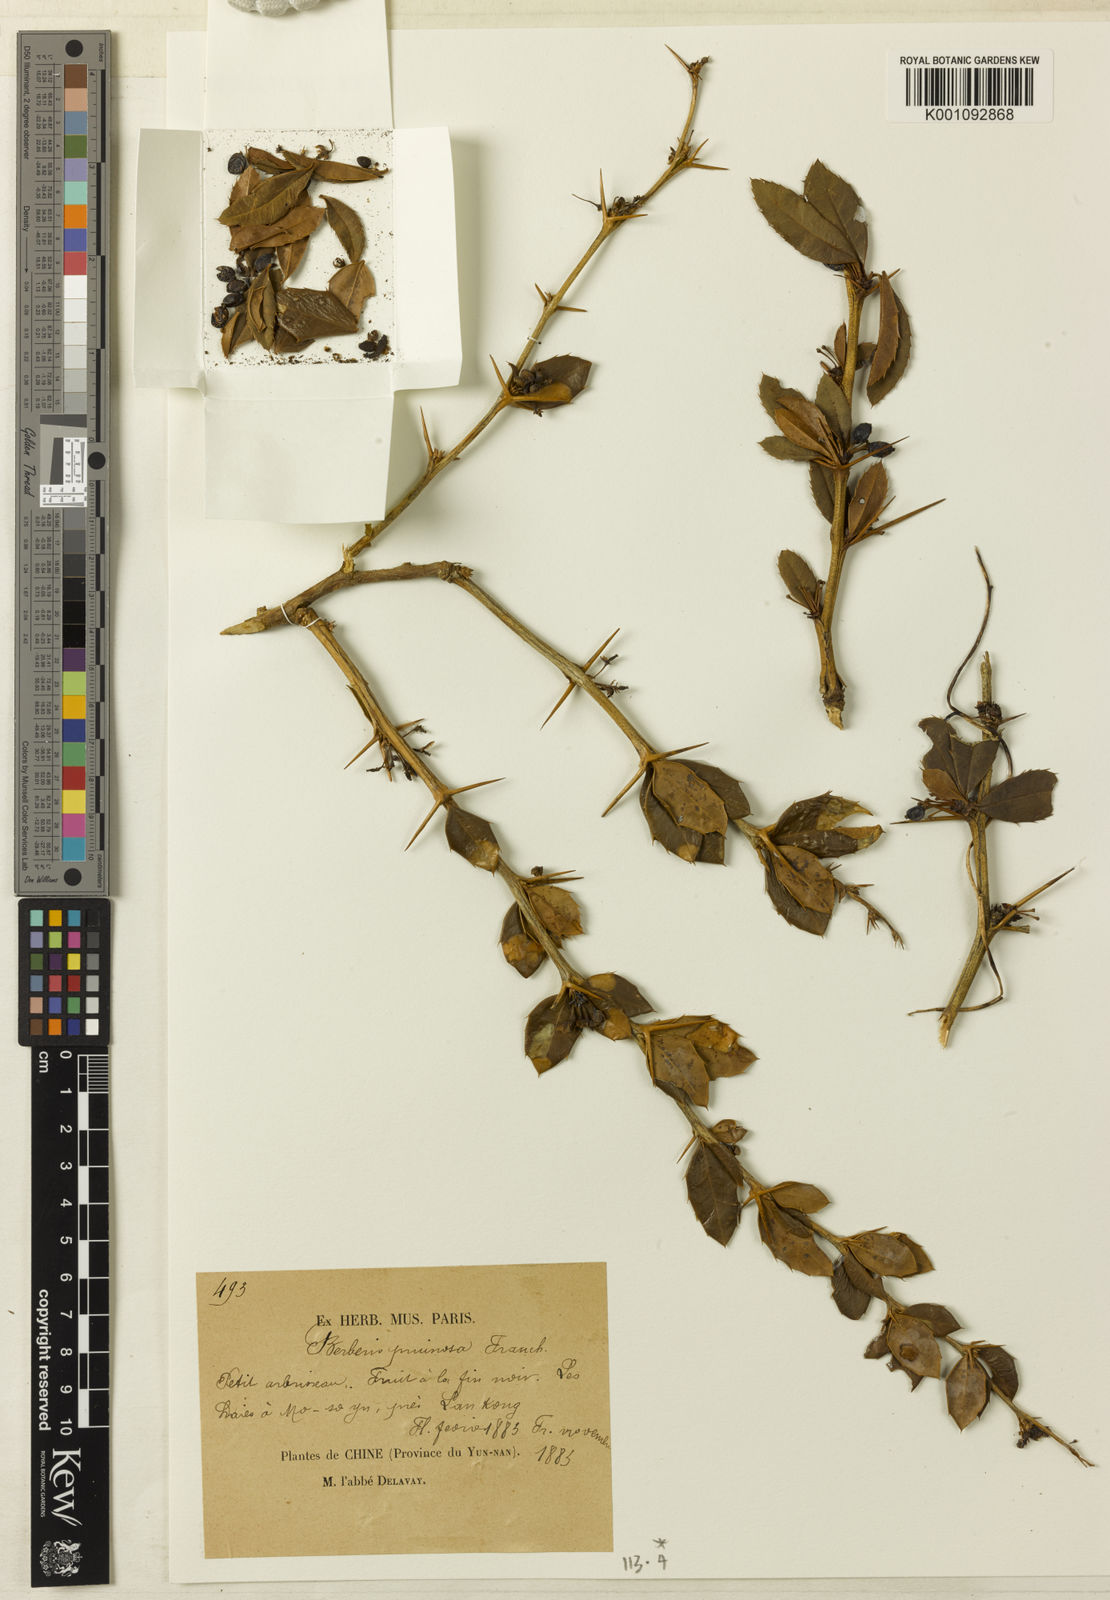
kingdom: Plantae
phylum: Tracheophyta
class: Magnoliopsida
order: Ranunculales
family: Berberidaceae
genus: Berberis
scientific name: Berberis pruinosa
